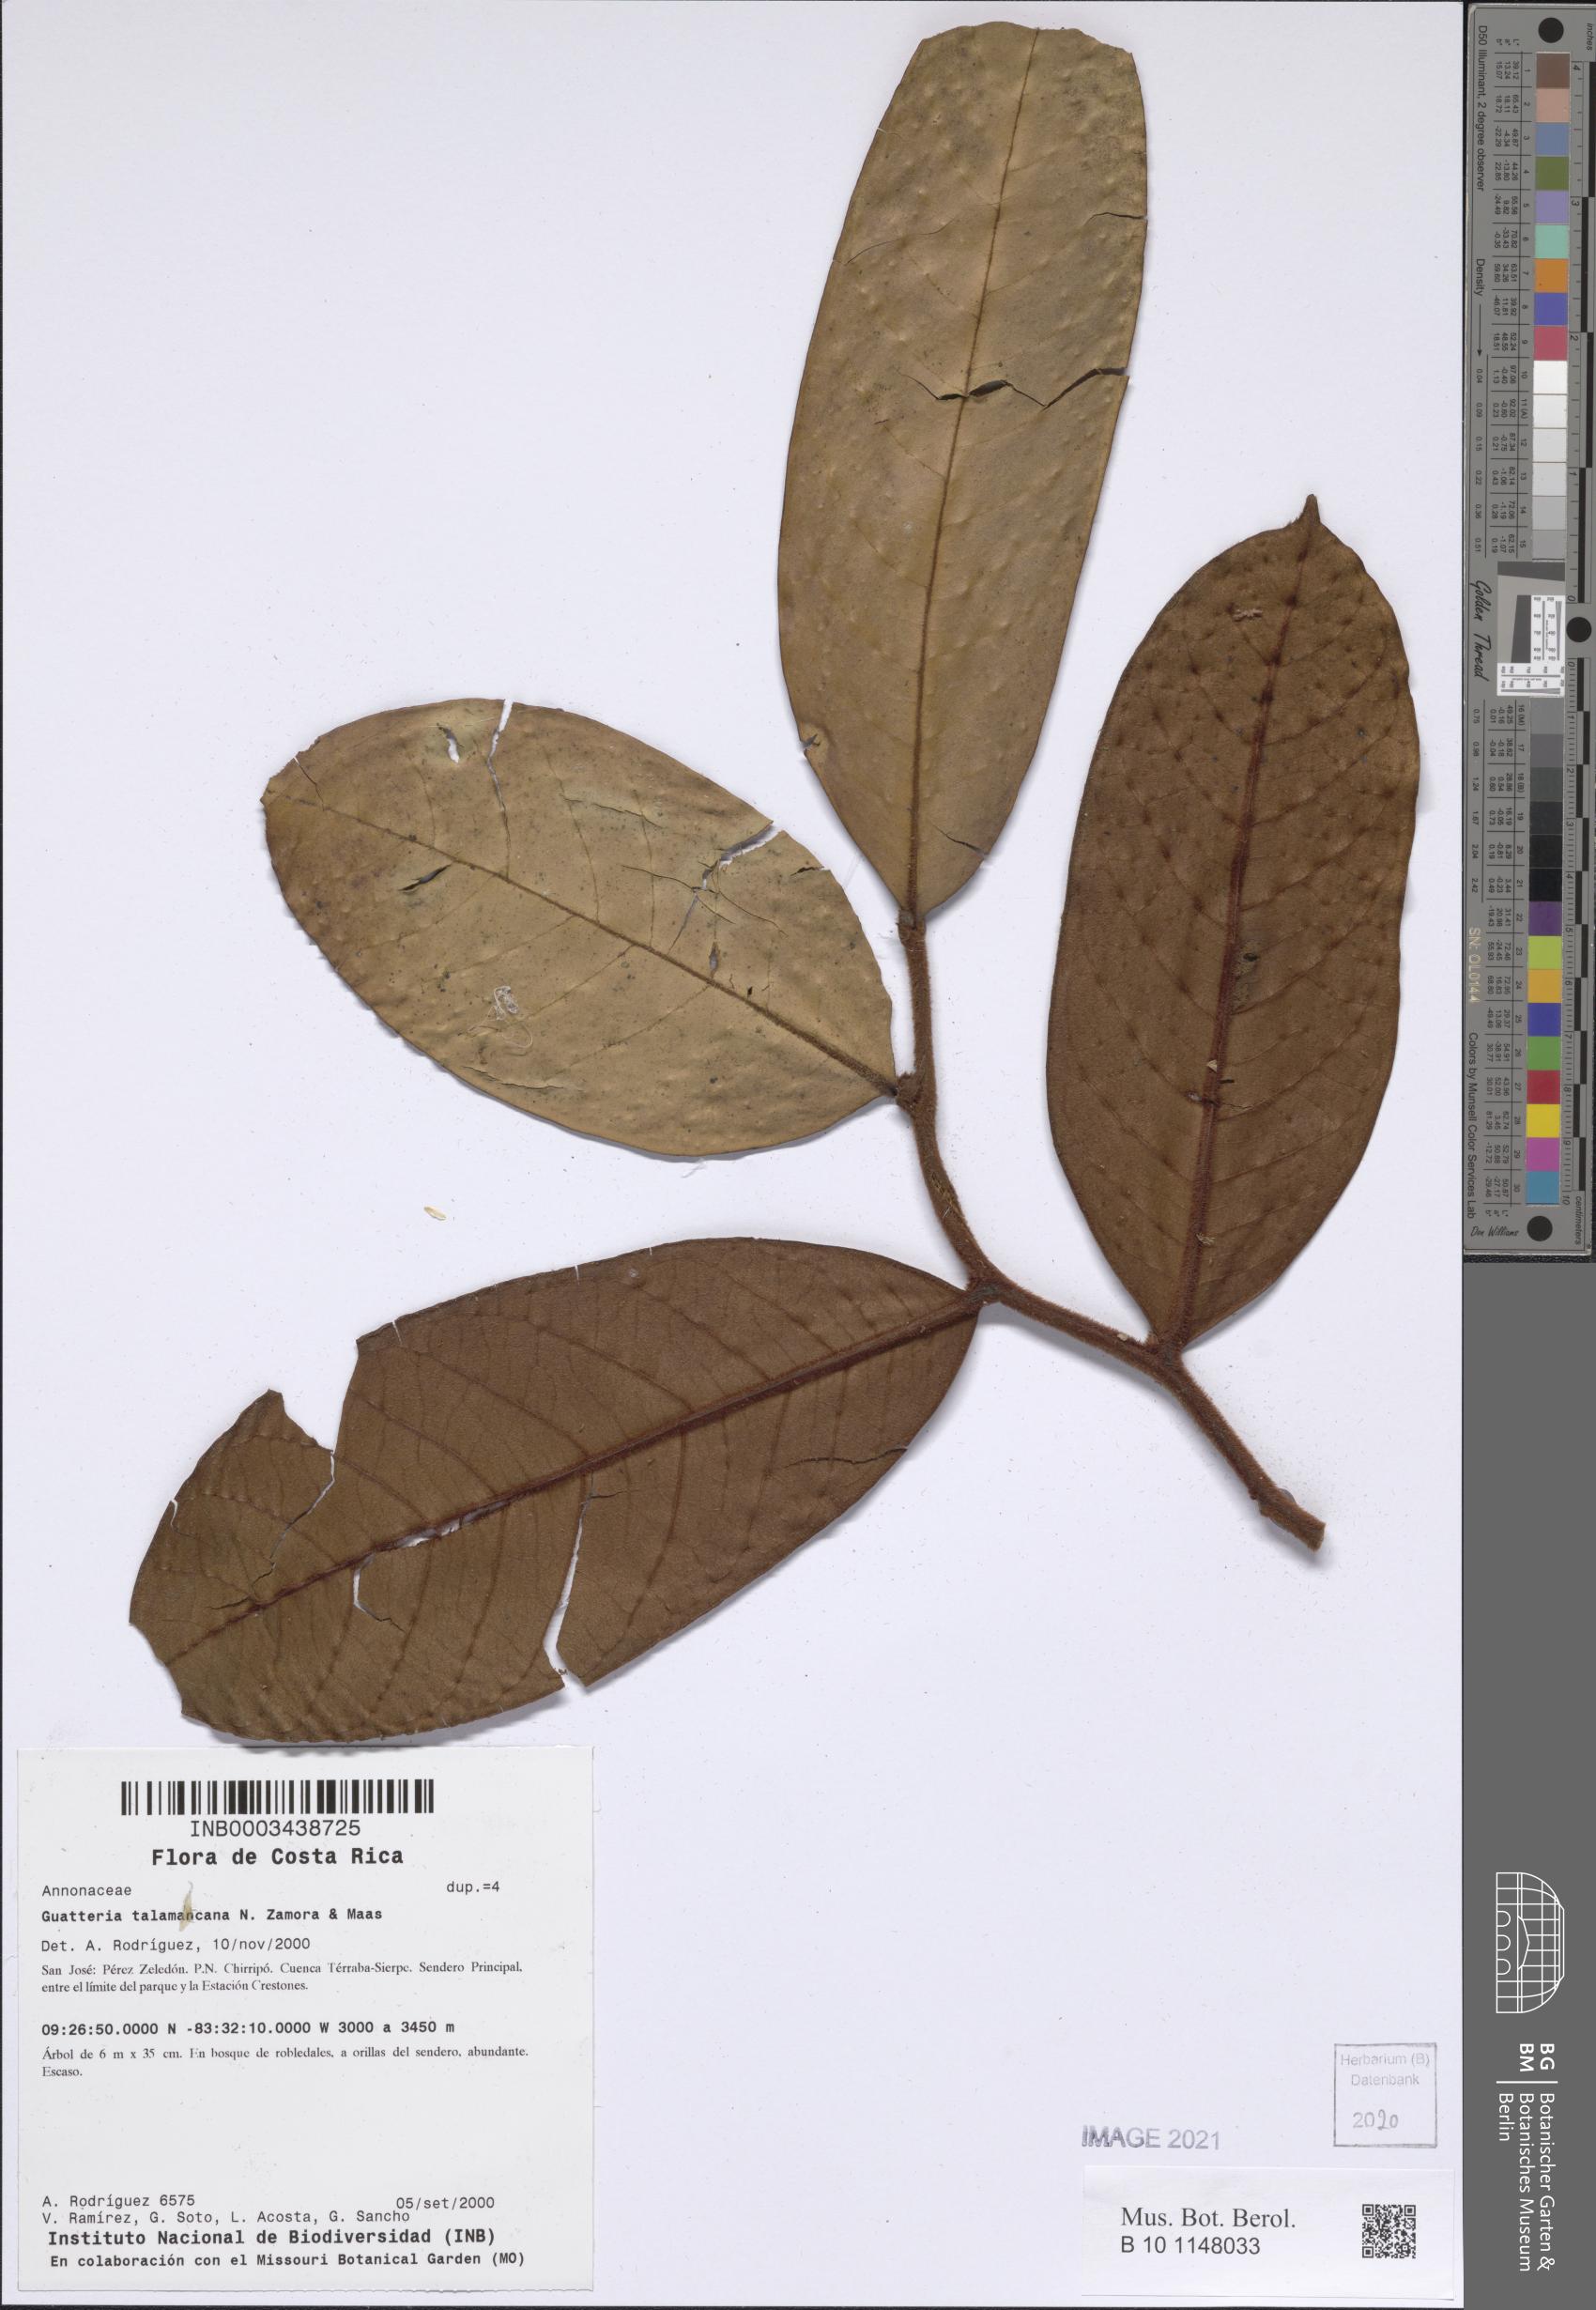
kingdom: Plantae
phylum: Tracheophyta
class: Magnoliopsida
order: Magnoliales
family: Annonaceae
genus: Guatteria
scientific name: Guatteria talamancana
